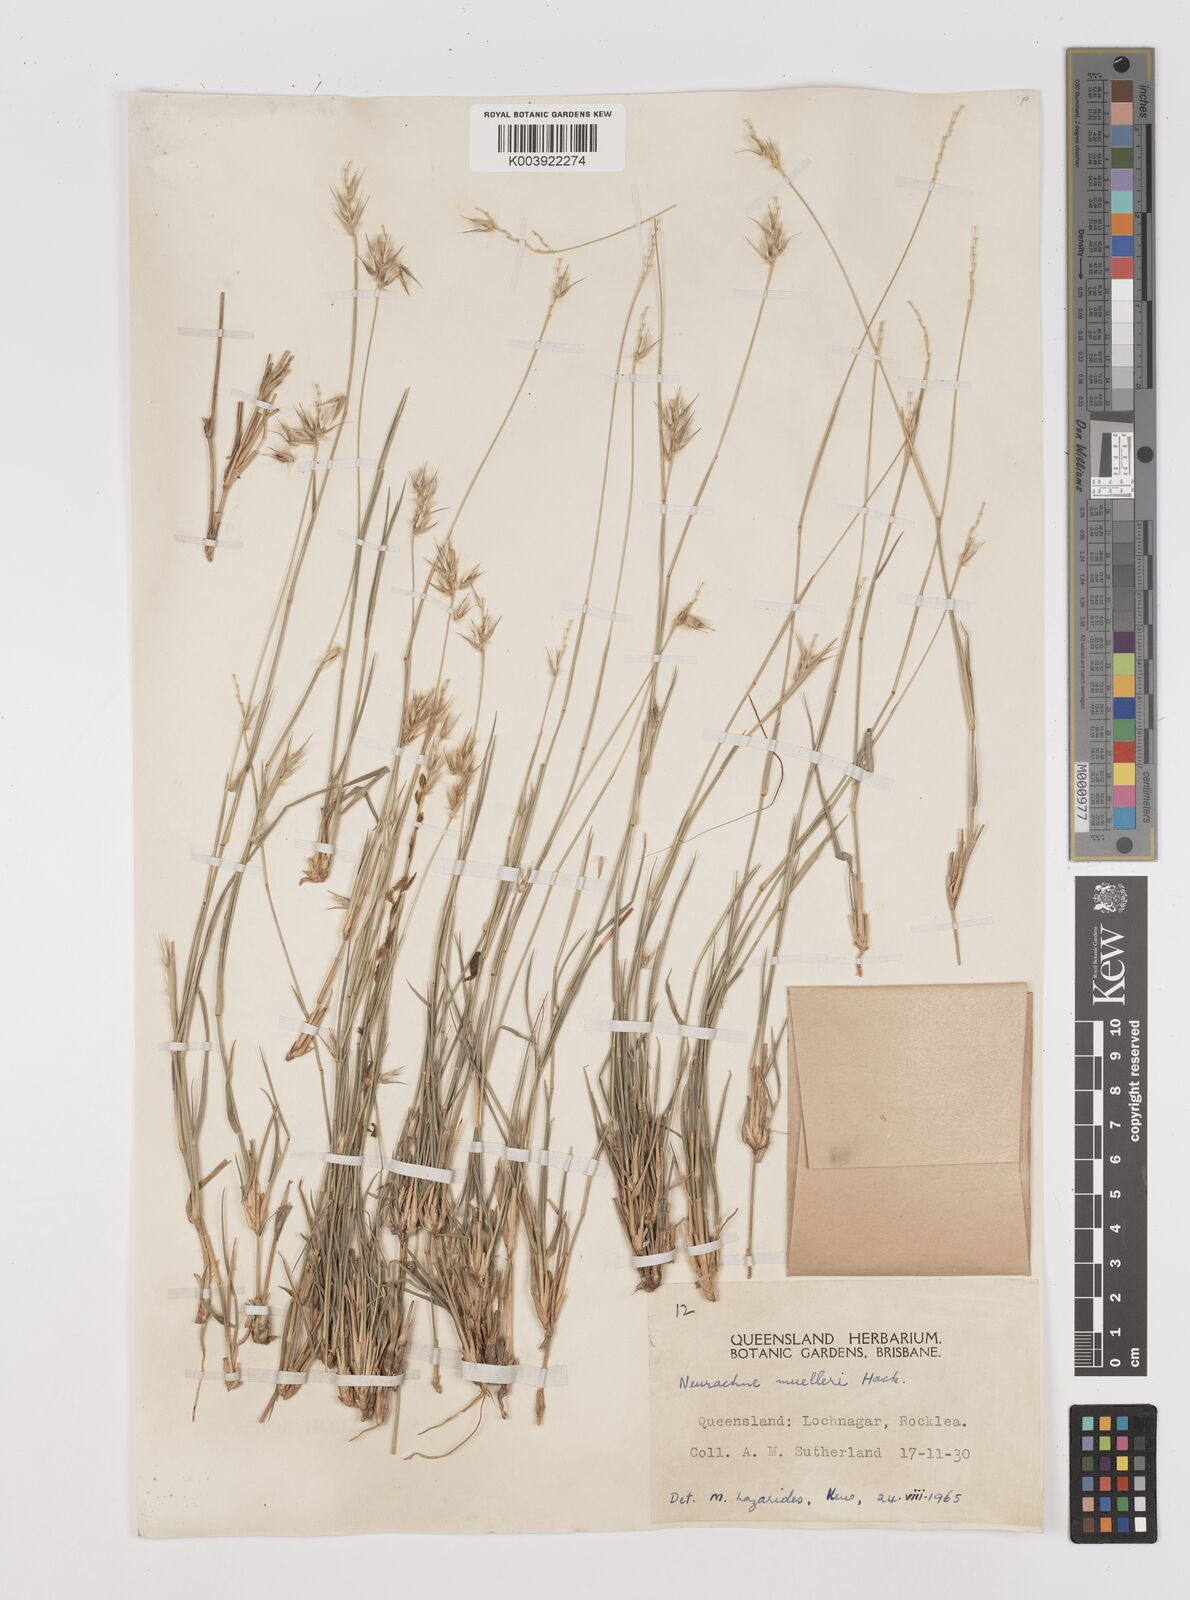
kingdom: Plantae
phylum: Tracheophyta
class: Liliopsida
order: Poales
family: Poaceae
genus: Neurachne
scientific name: Neurachne muelleri
